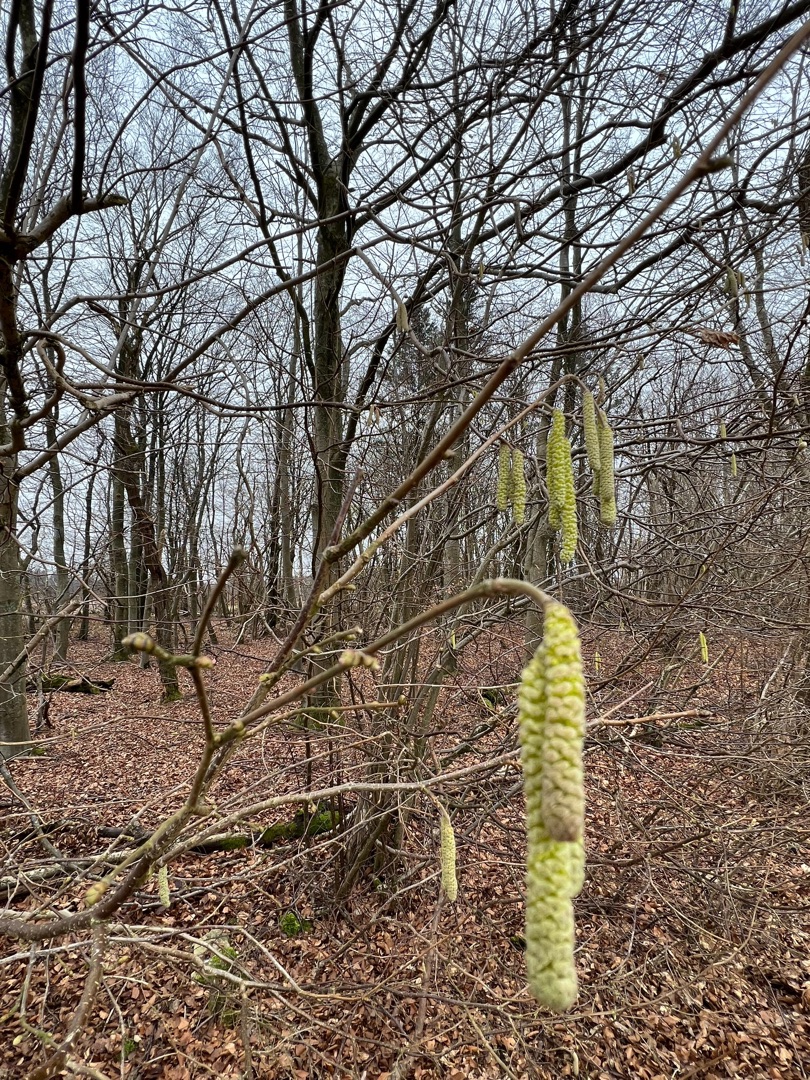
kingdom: Plantae
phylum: Tracheophyta
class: Magnoliopsida
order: Fagales
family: Betulaceae
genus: Corylus
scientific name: Corylus avellana
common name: Hassel
